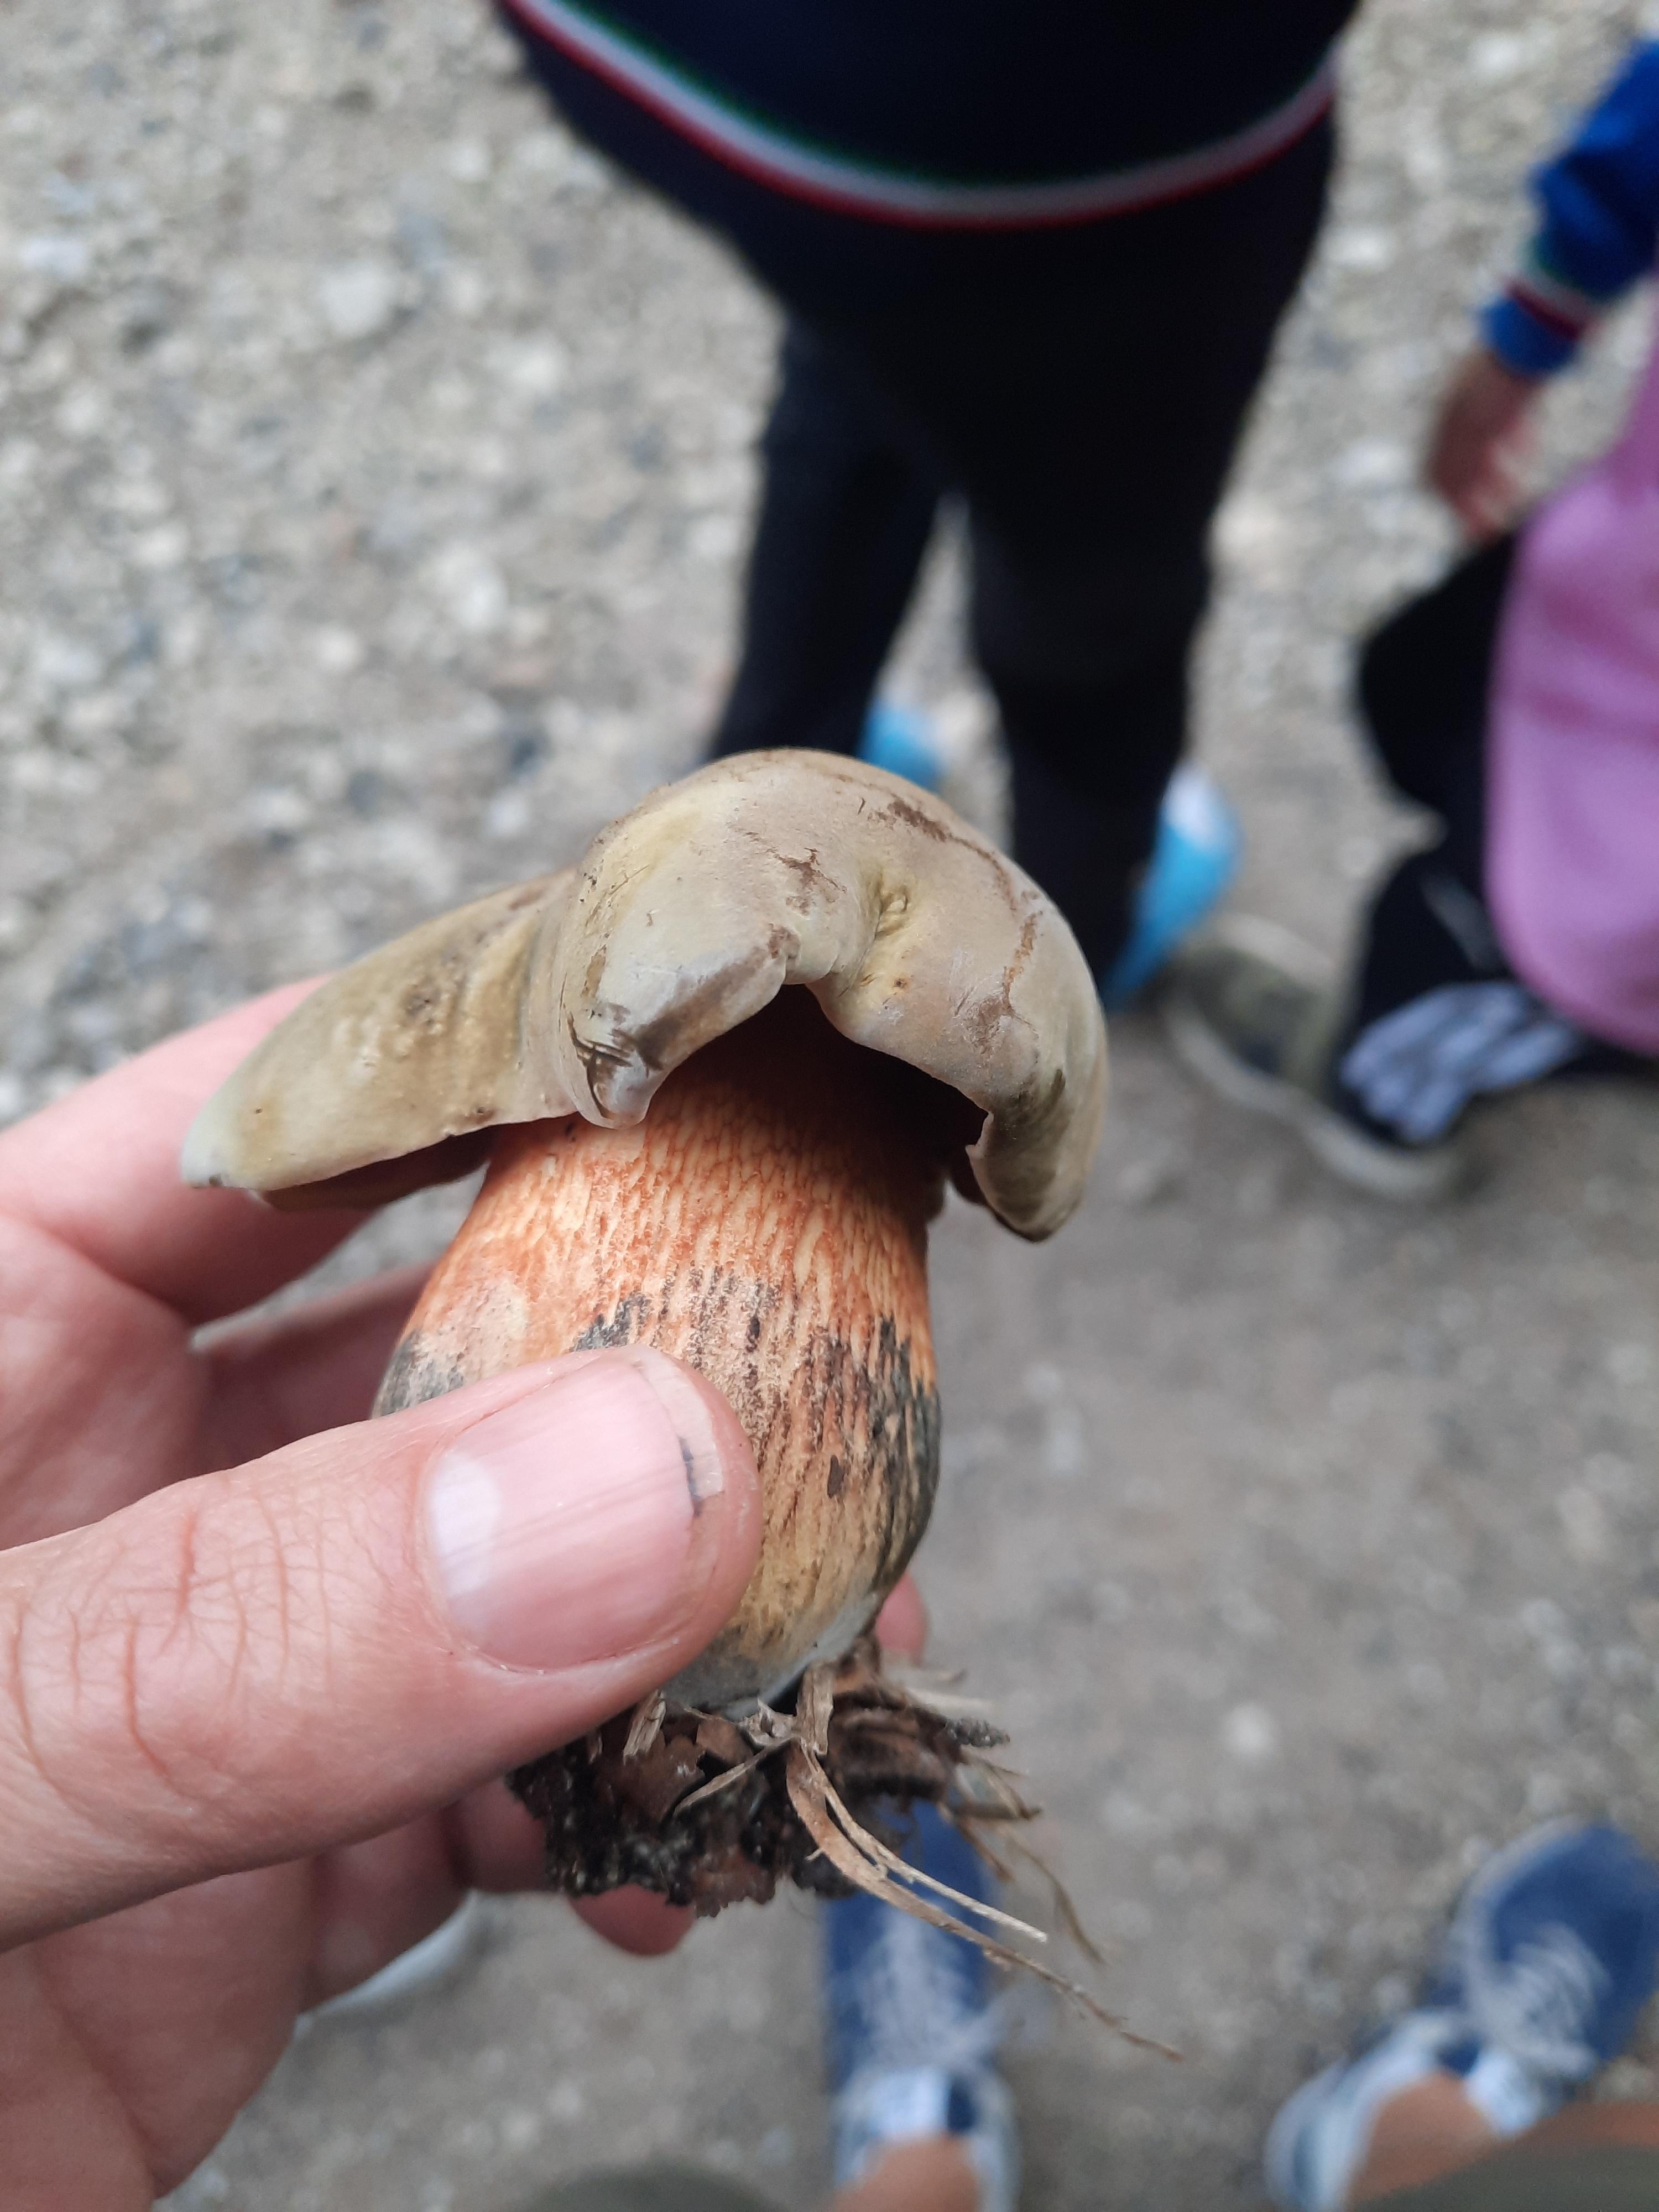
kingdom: Fungi
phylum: Basidiomycota
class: Agaricomycetes
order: Boletales
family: Boletaceae
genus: Suillellus
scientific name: Suillellus luridus
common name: netstokket indigorørhat
